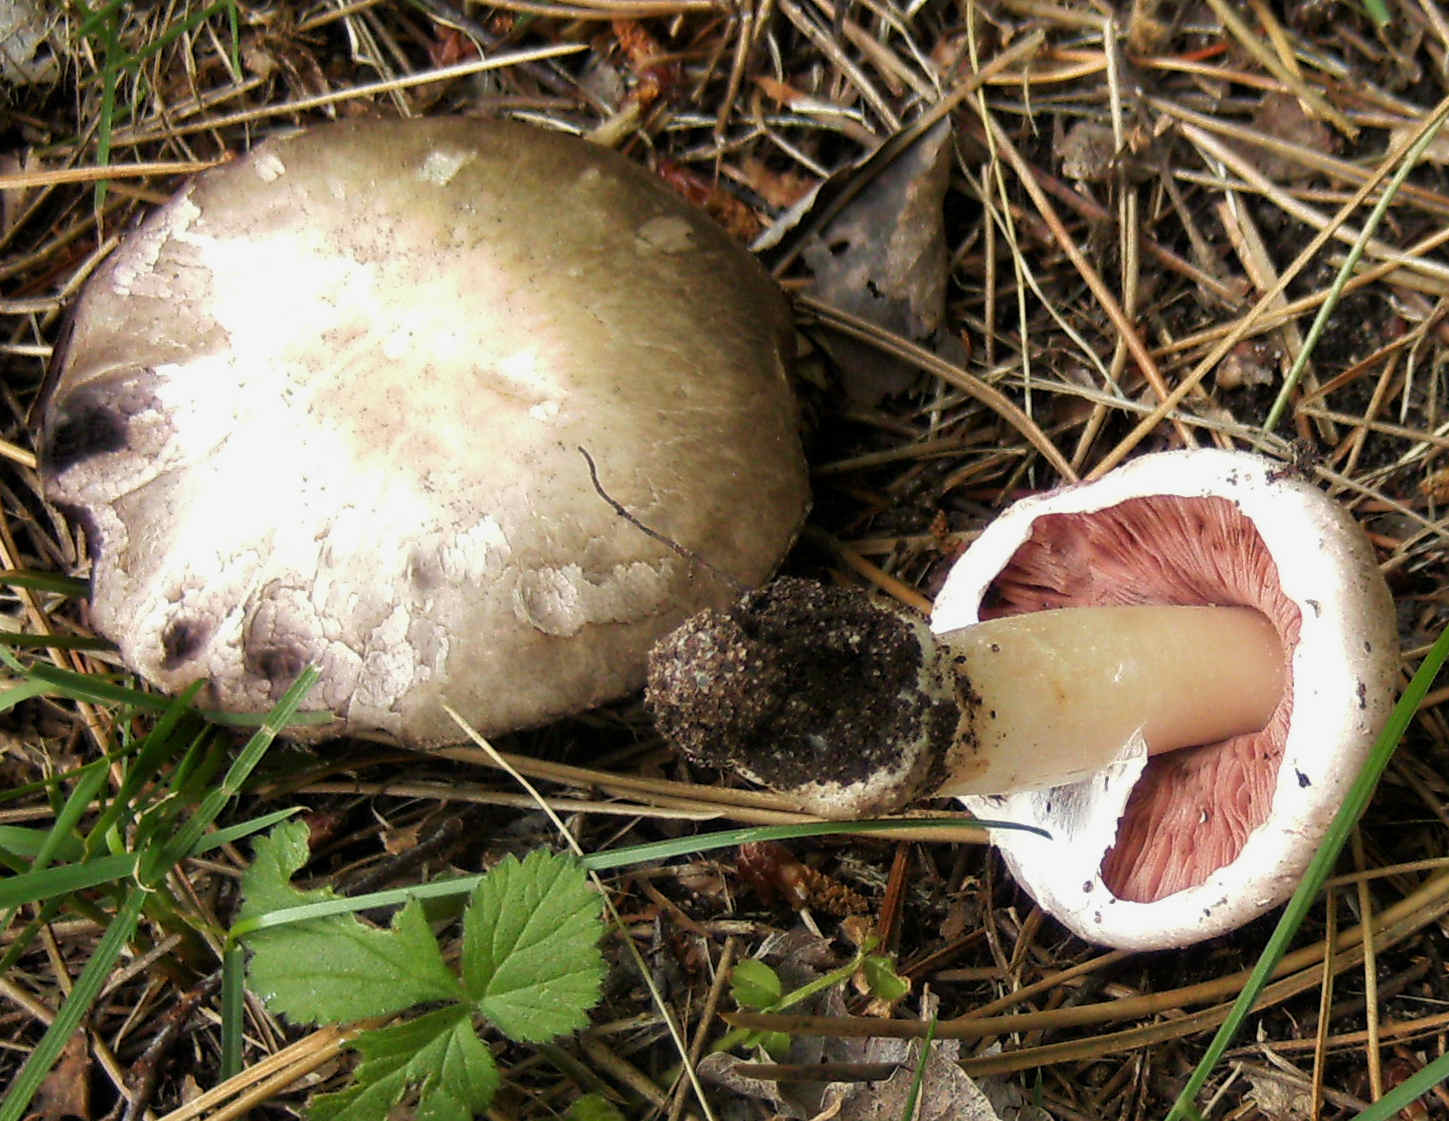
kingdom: Fungi
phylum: Basidiomycota
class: Agaricomycetes
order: Agaricales
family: Agaricaceae
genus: Agaricus
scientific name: Agaricus altipes
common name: sommer-champignon
